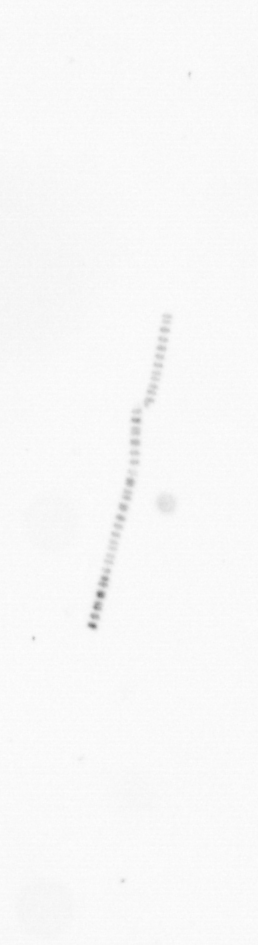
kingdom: Chromista
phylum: Ochrophyta
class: Bacillariophyceae
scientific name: Bacillariophyceae
